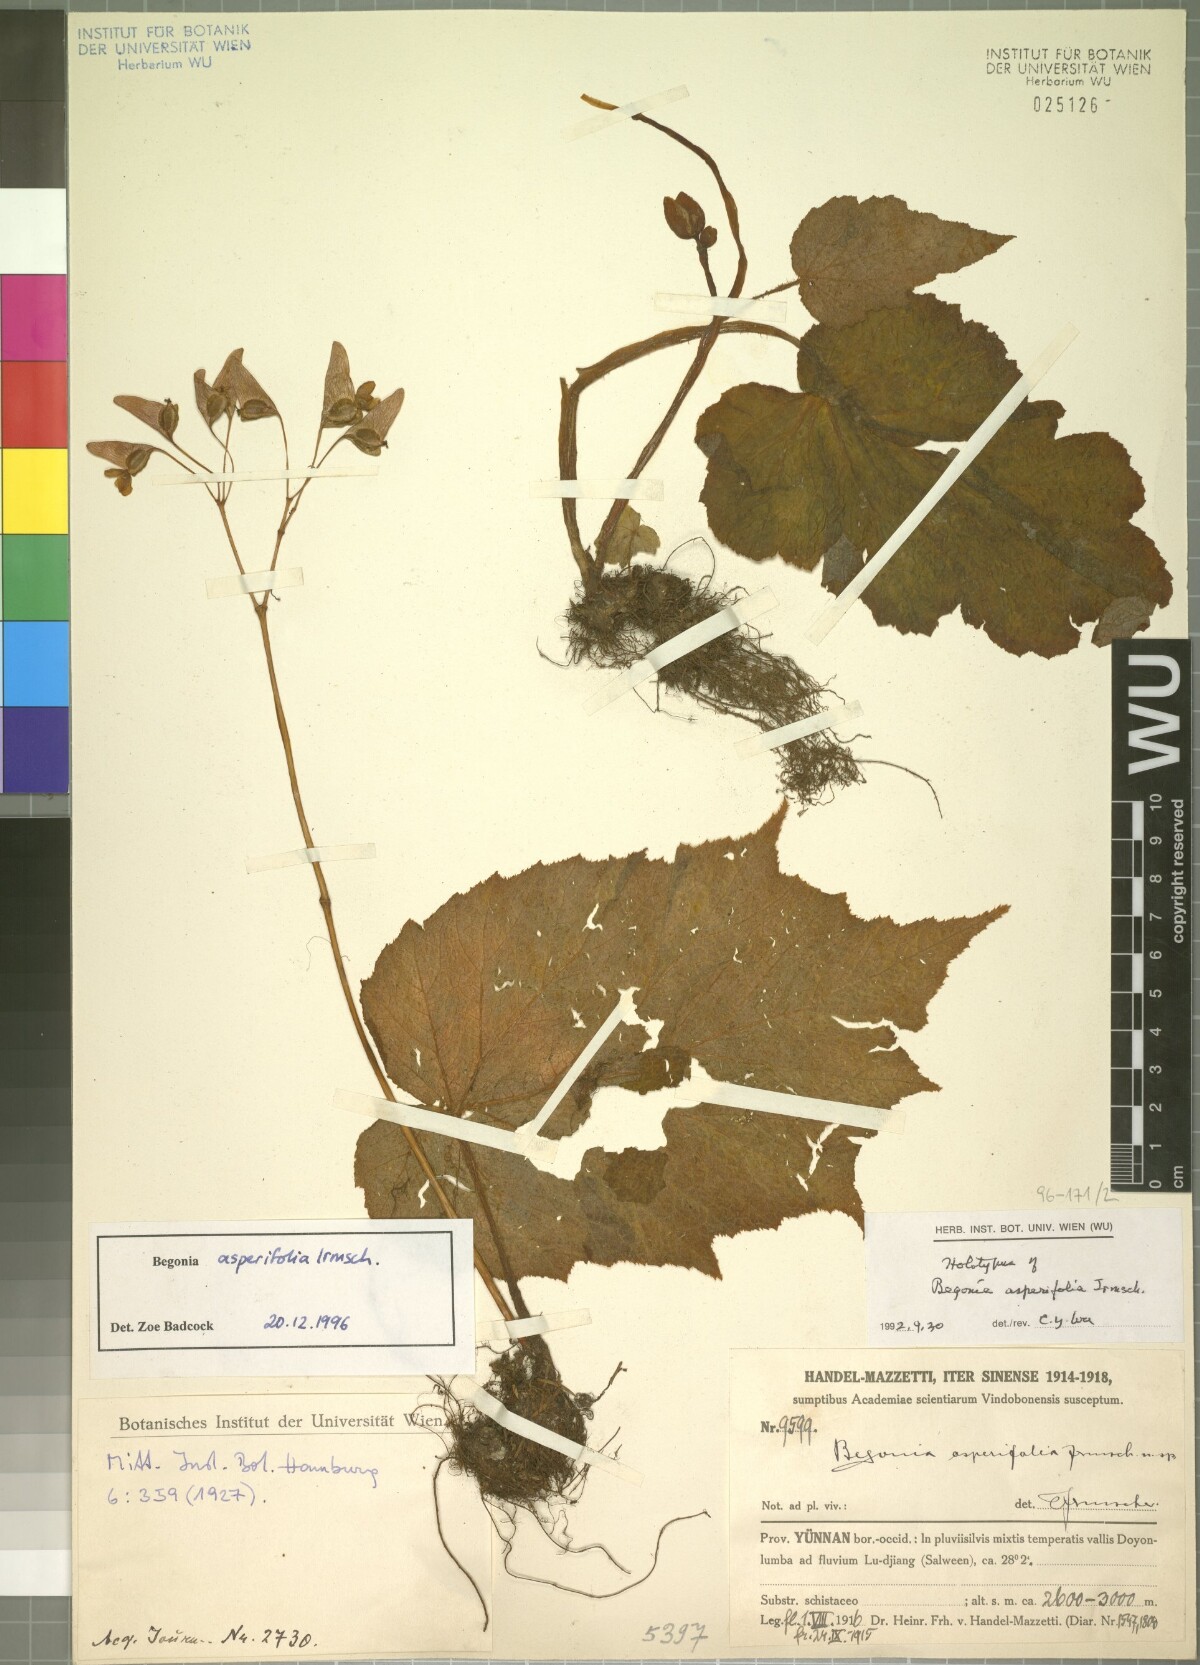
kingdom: Plantae
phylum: Tracheophyta
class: Magnoliopsida
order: Cucurbitales
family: Begoniaceae
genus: Begonia
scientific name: Begonia asperifolia
